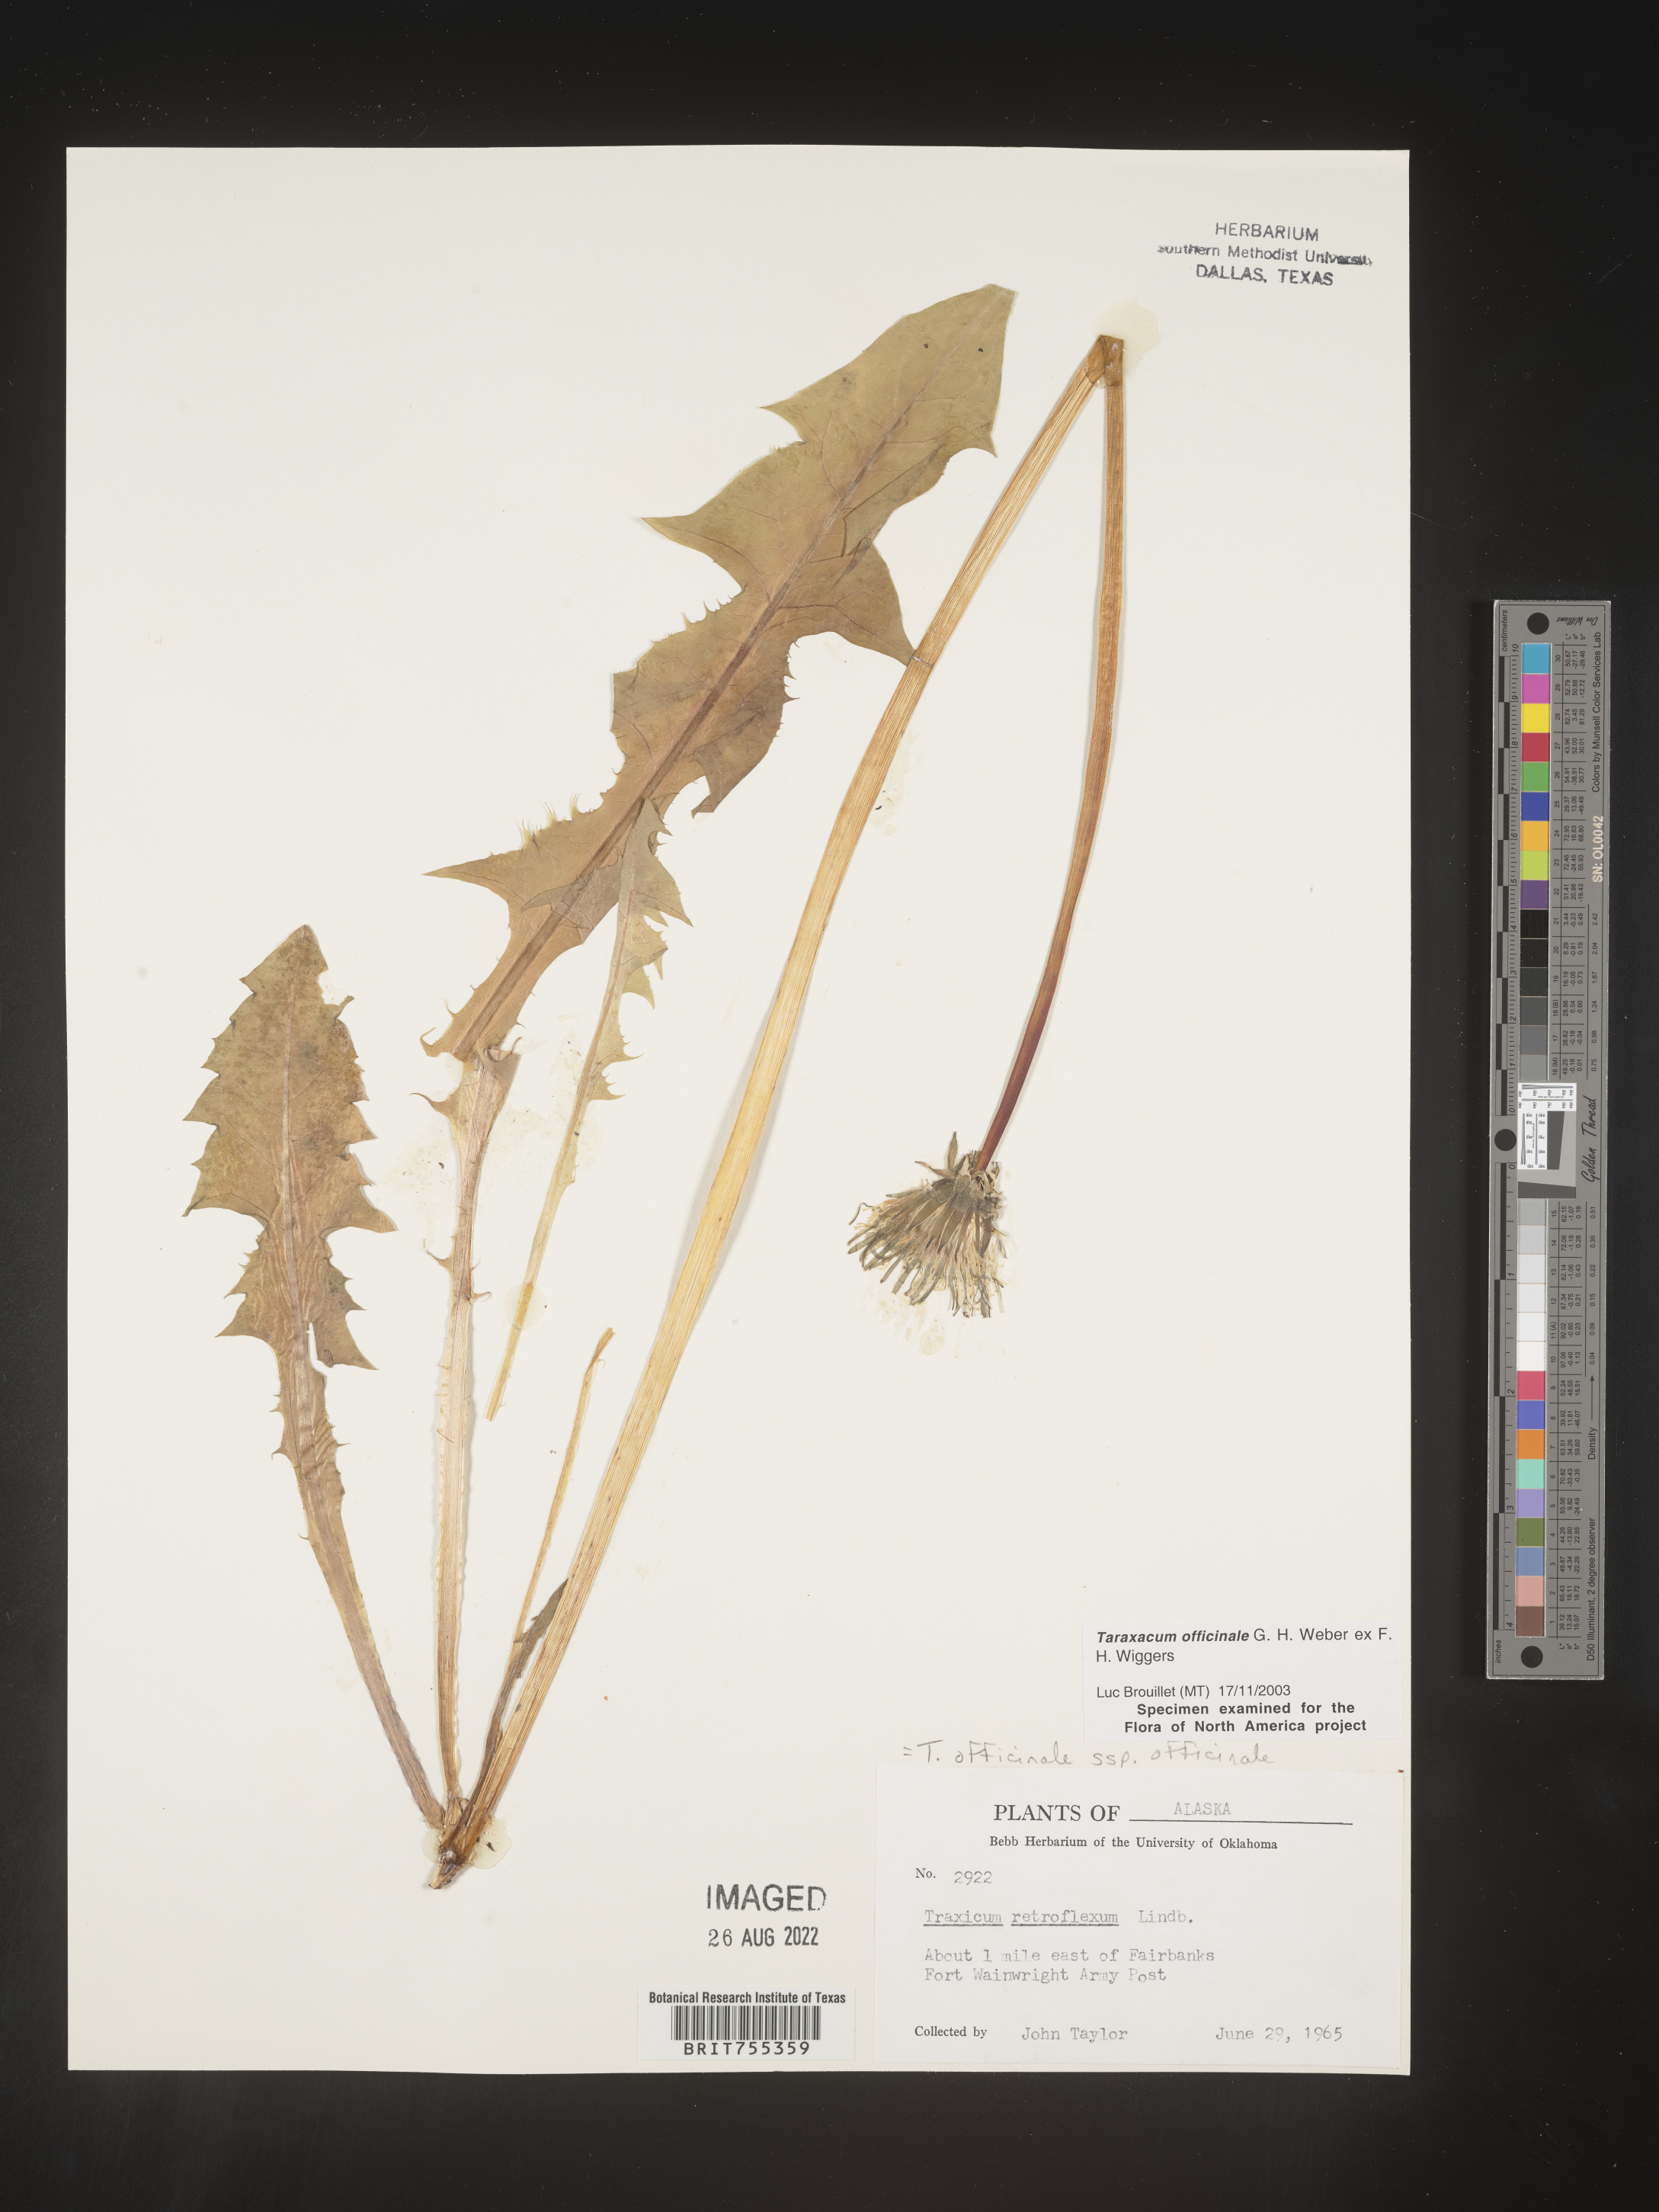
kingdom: Plantae
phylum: Tracheophyta
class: Magnoliopsida
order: Asterales
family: Asteraceae
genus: Taraxacum
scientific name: Taraxacum officinale
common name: Common dandelion
